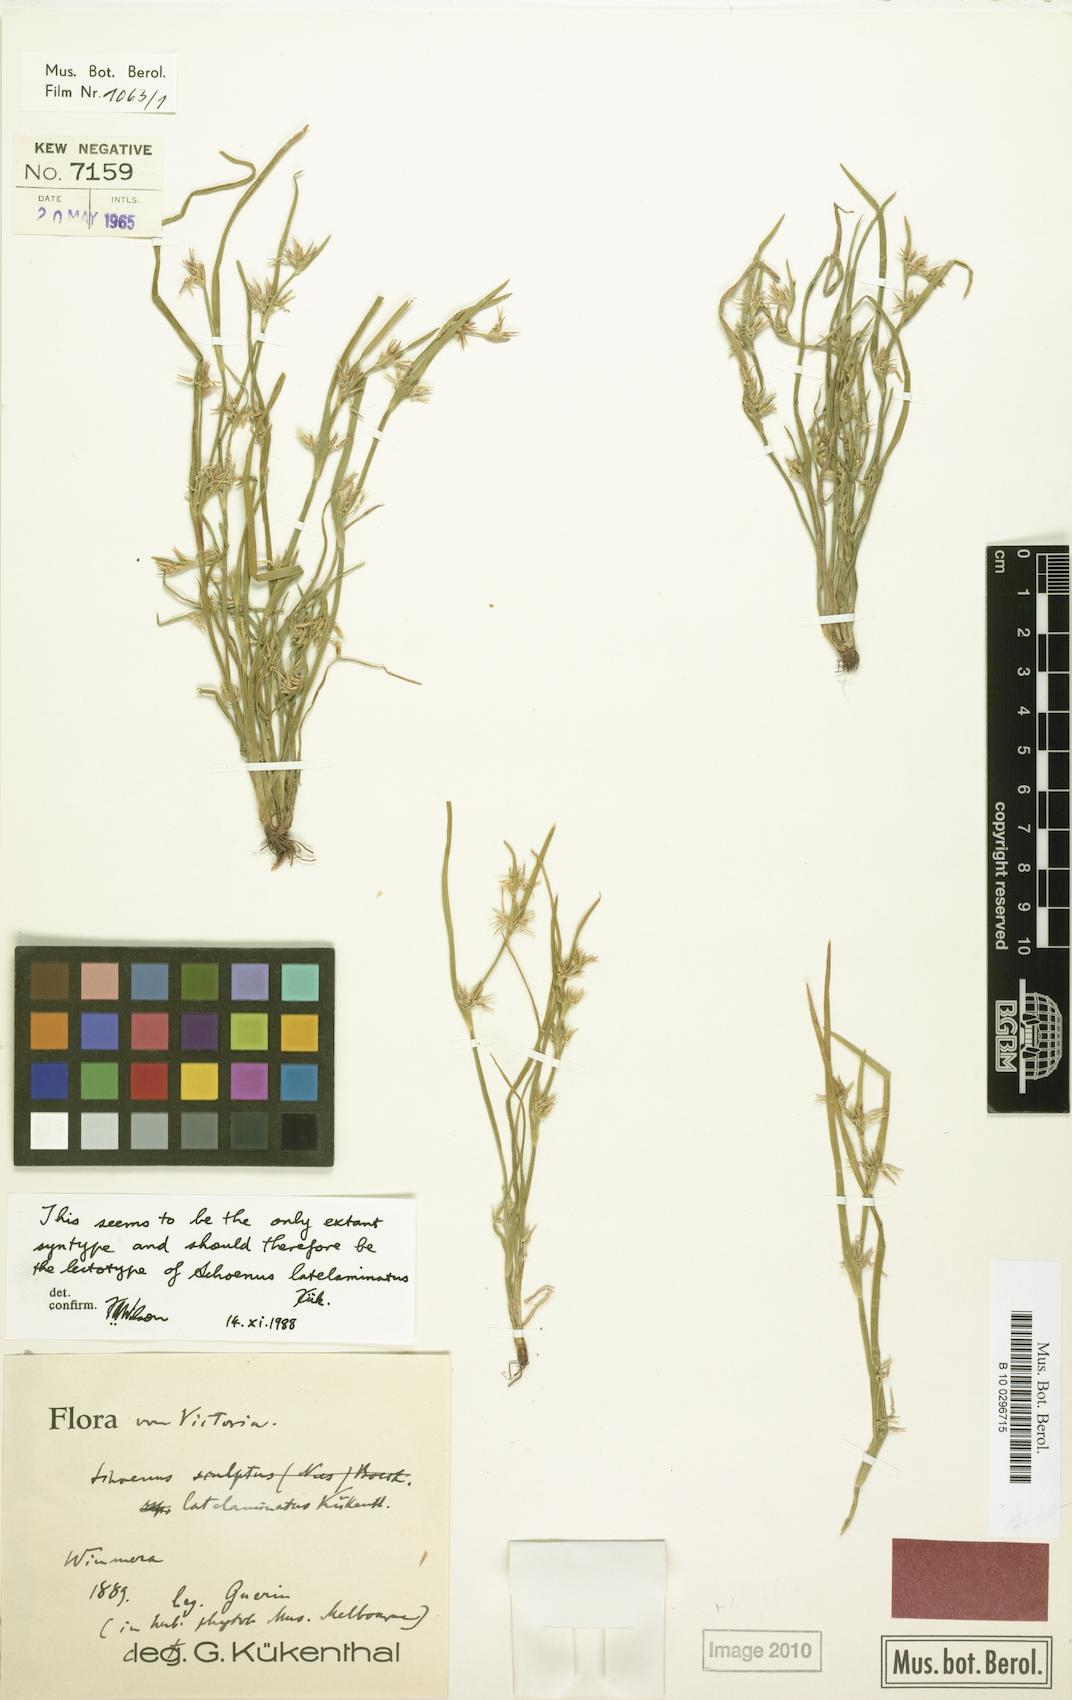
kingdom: Plantae
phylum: Tracheophyta
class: Liliopsida
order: Poales
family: Cyperaceae
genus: Schoenus
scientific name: Schoenus latelaminatus
